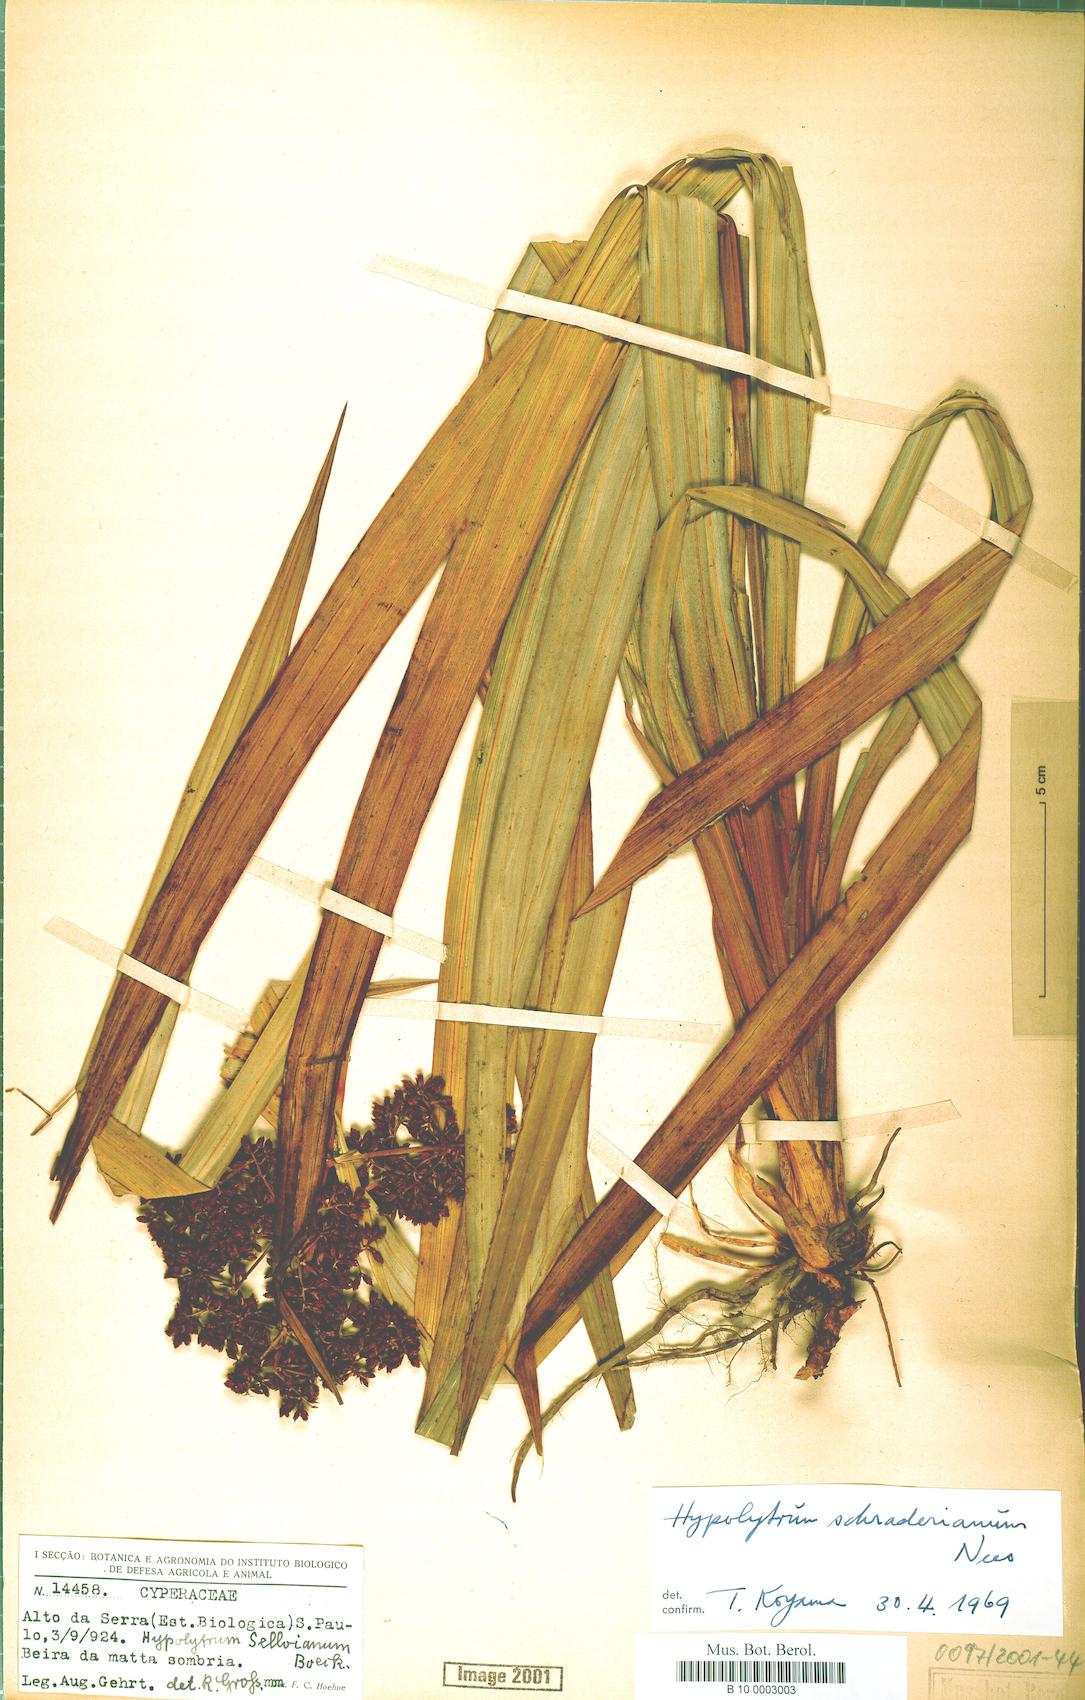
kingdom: Plantae
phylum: Tracheophyta
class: Liliopsida
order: Poales
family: Cyperaceae
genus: Hypolytrum
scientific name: Hypolytrum schraderianum
